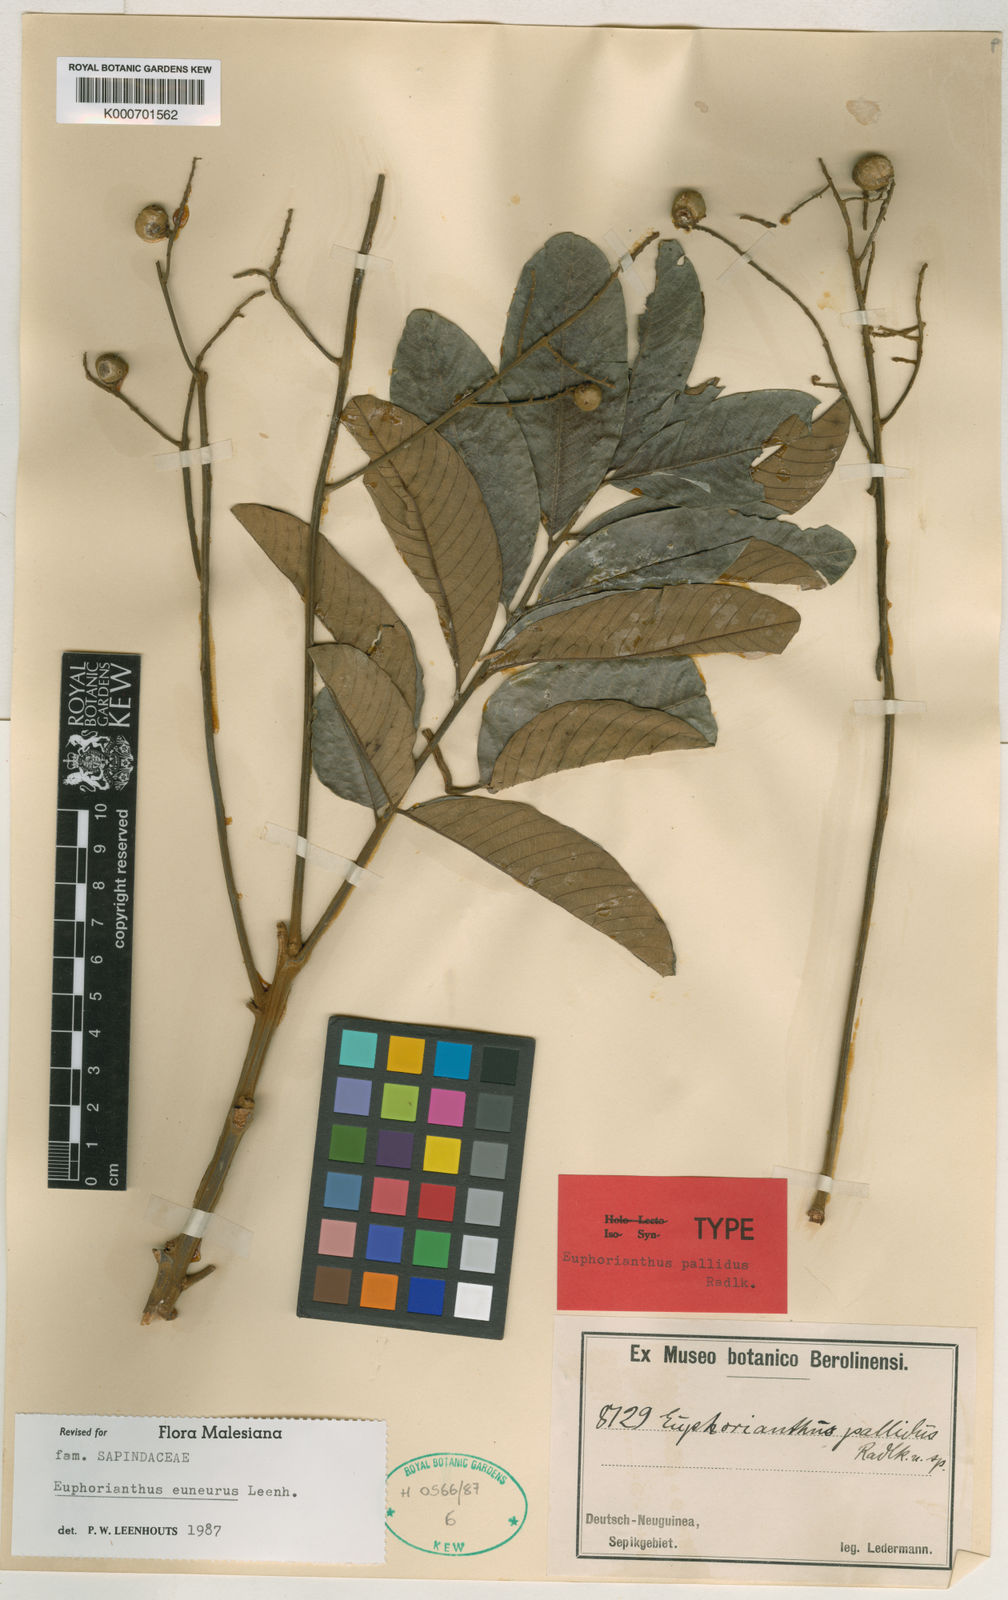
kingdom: Plantae
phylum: Tracheophyta
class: Magnoliopsida
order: Sapindales
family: Sapindaceae
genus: Euphorianthus
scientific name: Euphorianthus euneurus
